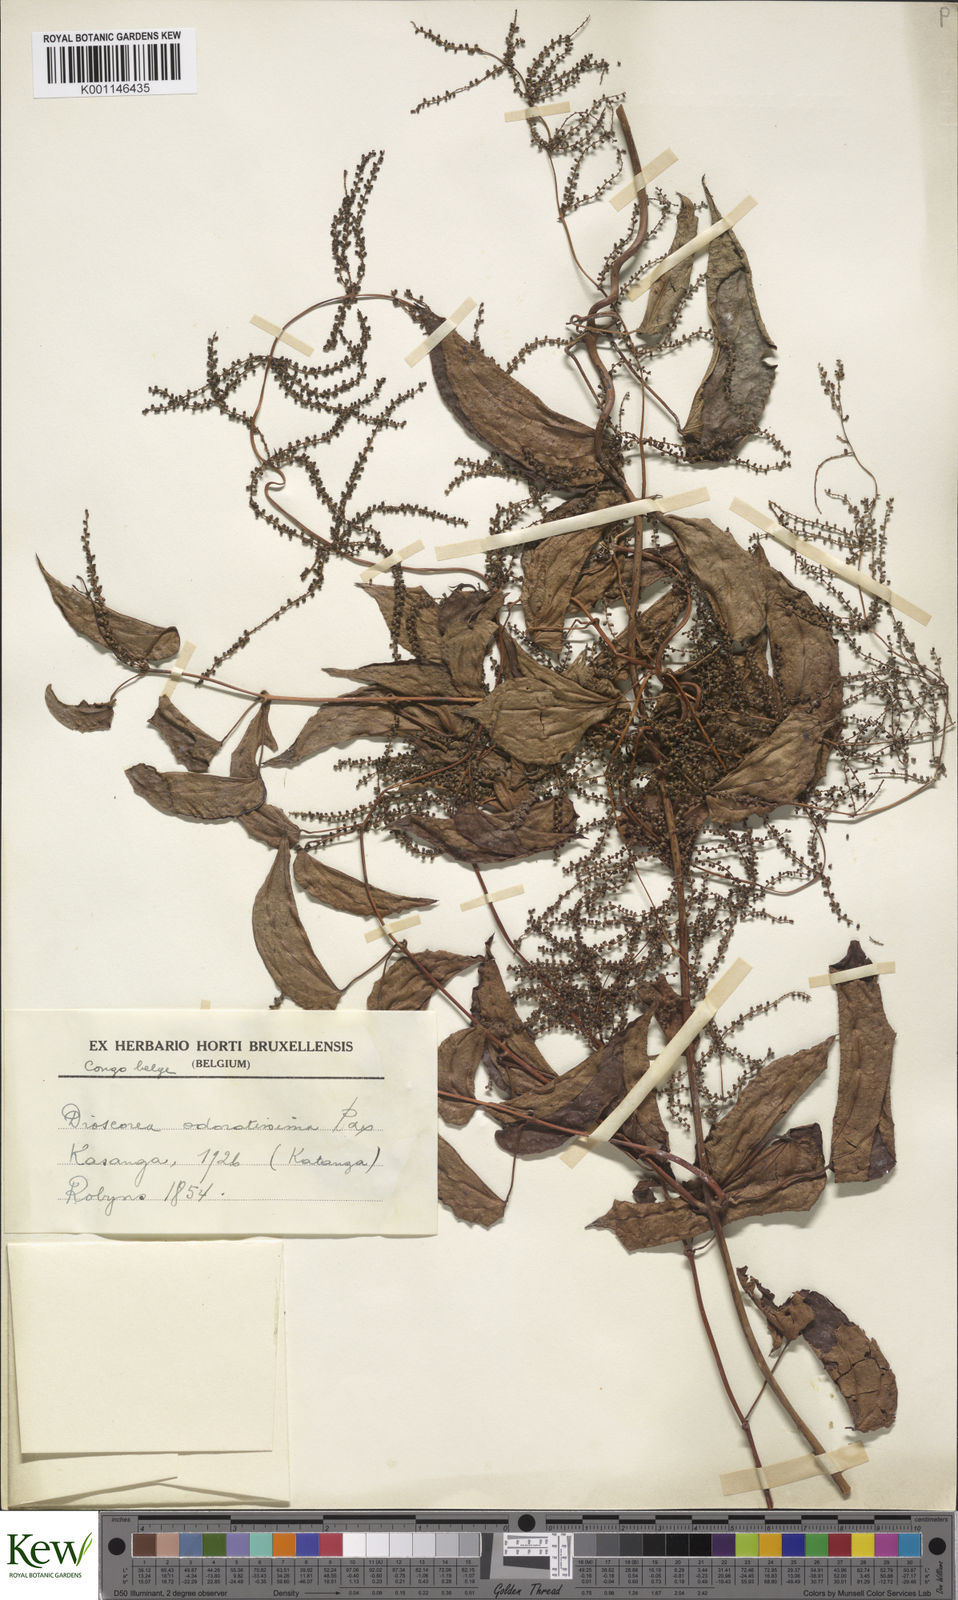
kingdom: Plantae
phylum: Tracheophyta
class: Liliopsida
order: Dioscoreales
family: Dioscoreaceae
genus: Dioscorea
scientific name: Dioscorea praehensilis
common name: Bush yam
